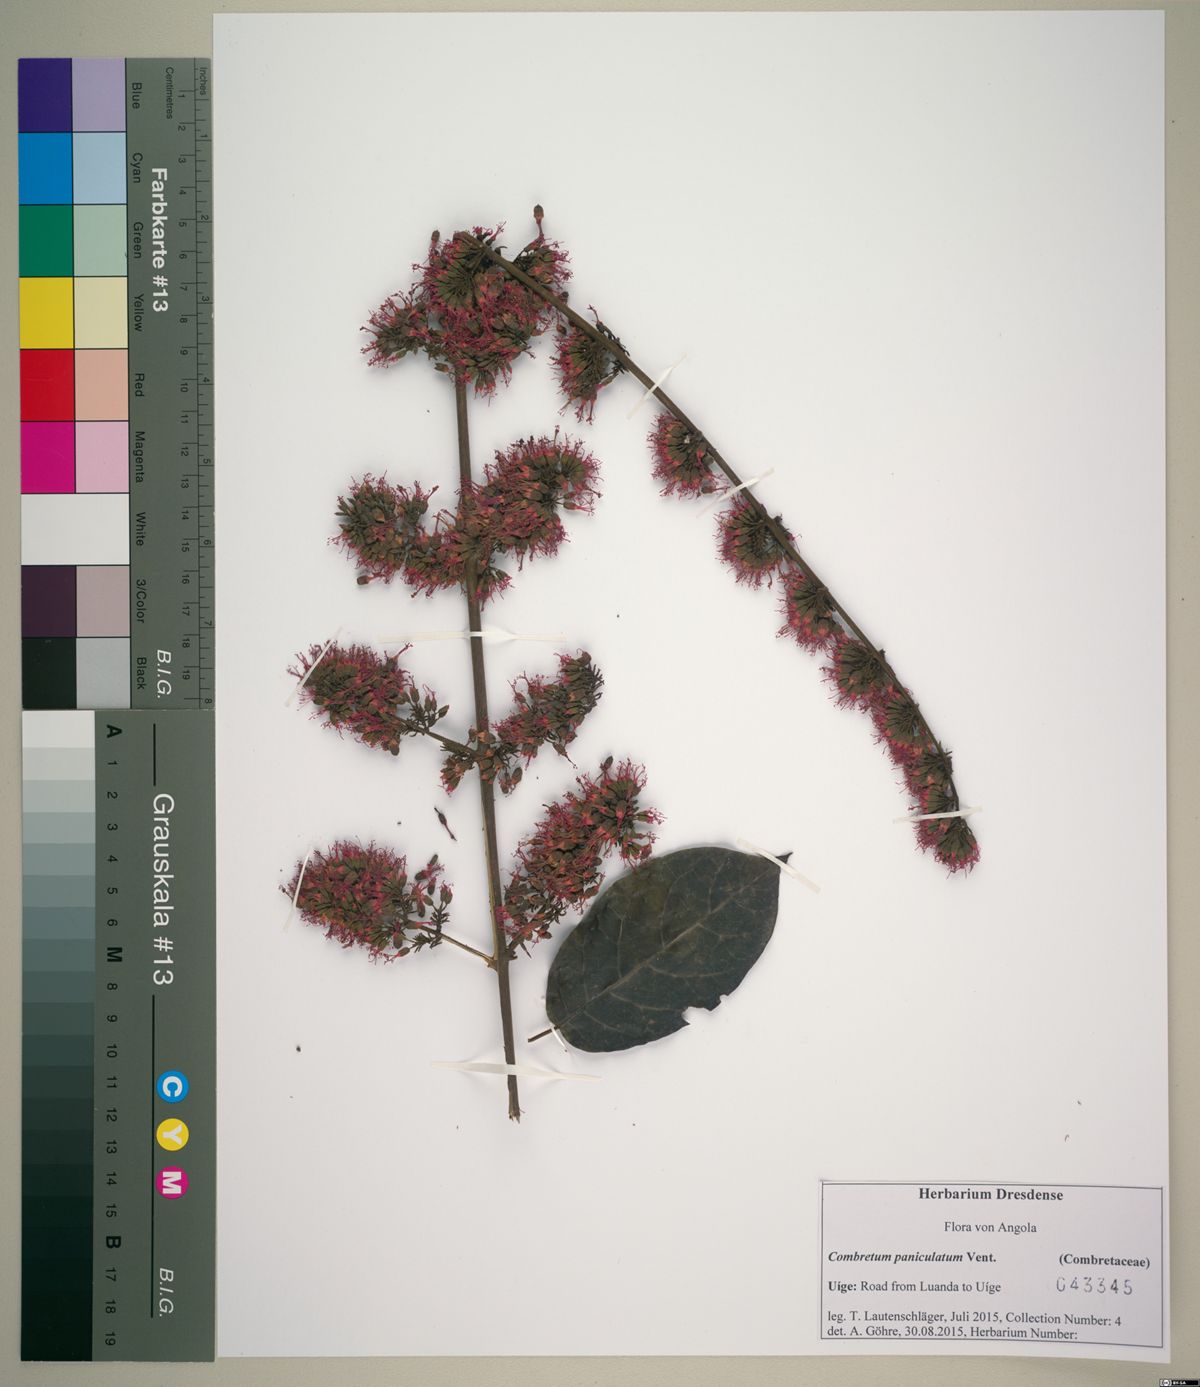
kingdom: Plantae
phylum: Tracheophyta
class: Magnoliopsida
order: Myrtales
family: Combretaceae
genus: Combretum
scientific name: Combretum paniculatum
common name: Fire vine
